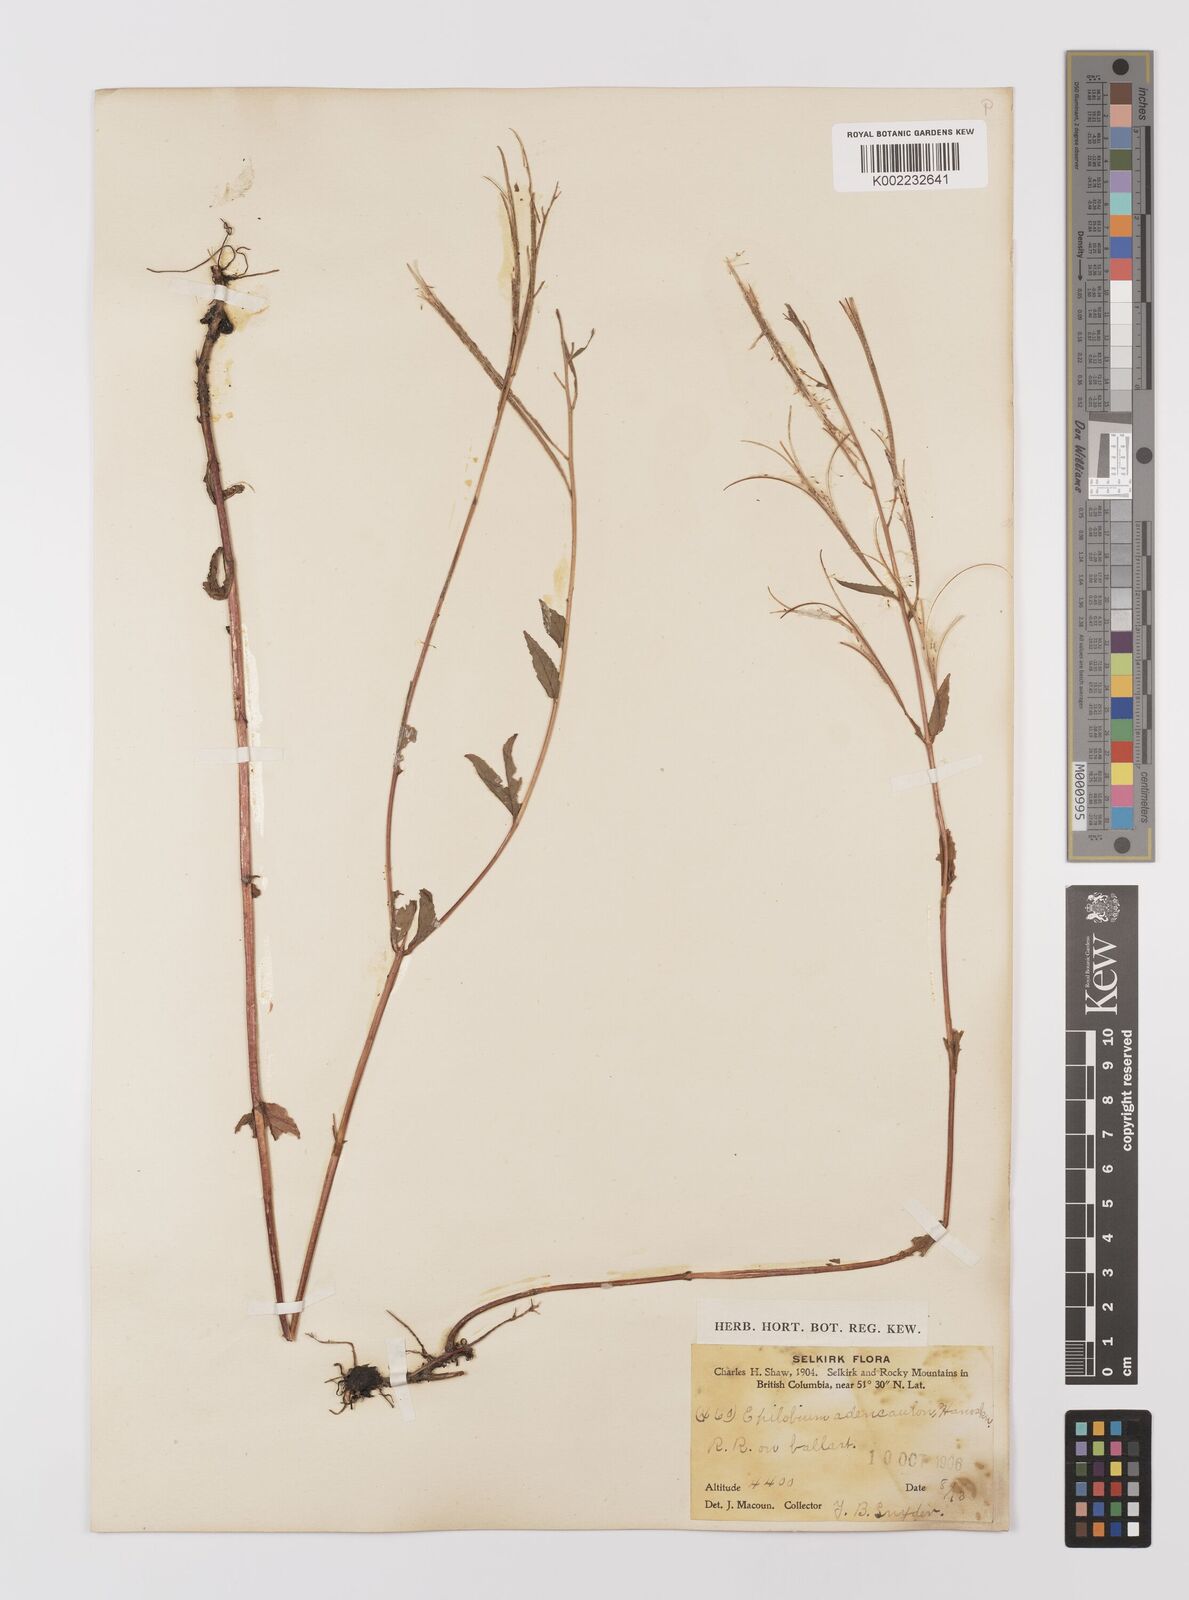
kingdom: Plantae
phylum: Tracheophyta
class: Magnoliopsida
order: Myrtales
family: Onagraceae
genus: Epilobium
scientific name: Epilobium ciliatum
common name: American willowherb
